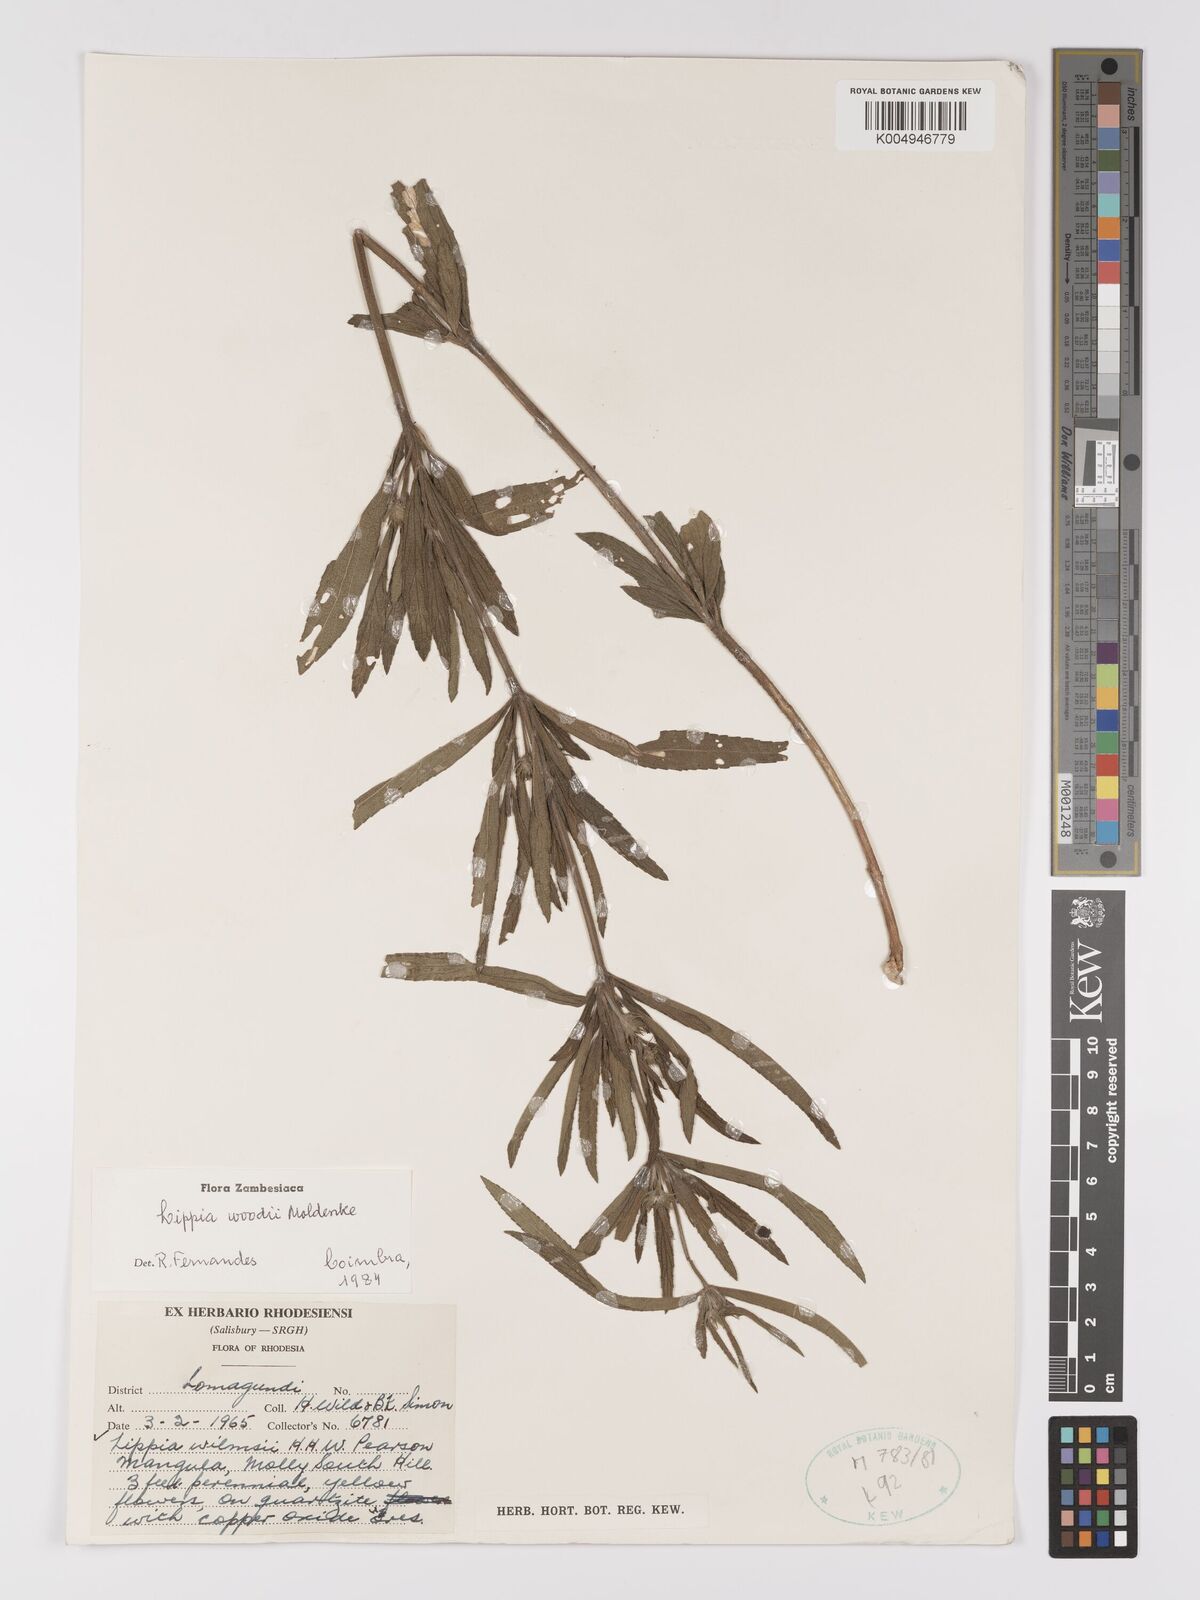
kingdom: Plantae
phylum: Tracheophyta
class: Magnoliopsida
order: Lamiales
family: Verbenaceae
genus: Lippia
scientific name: Lippia woodii
